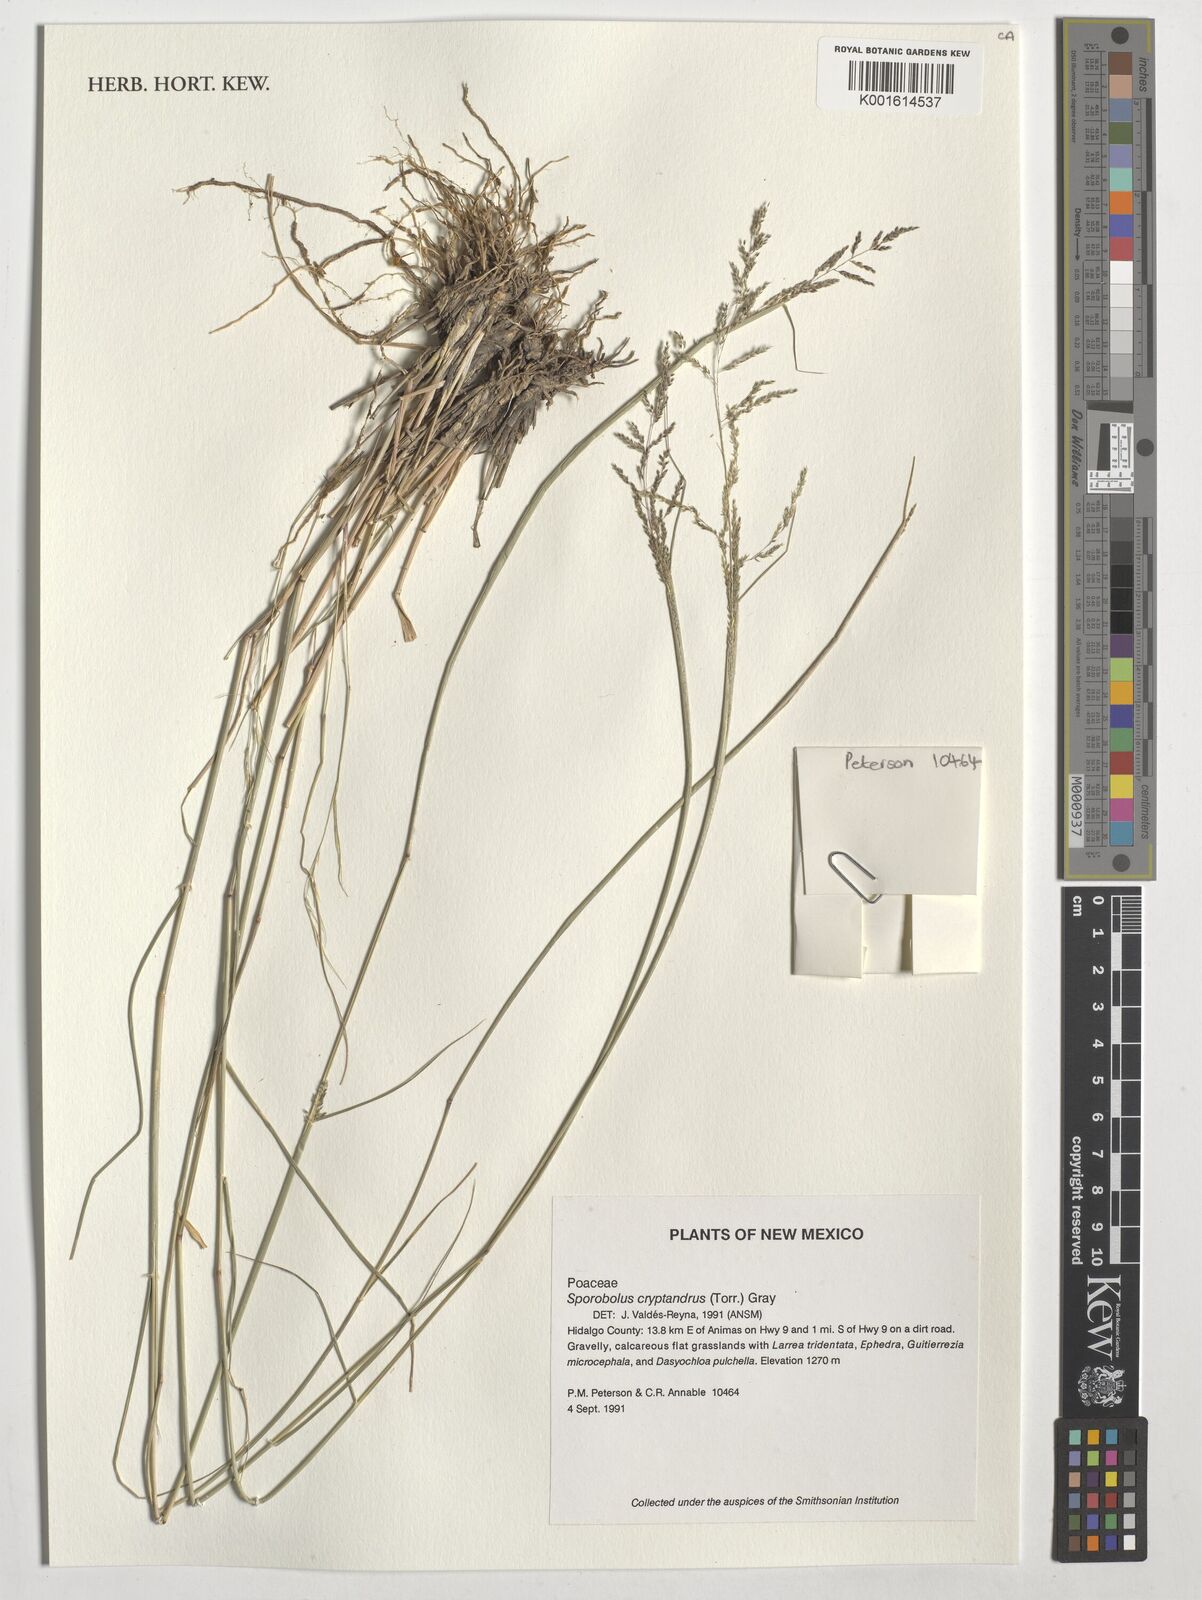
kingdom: Plantae
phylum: Tracheophyta
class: Liliopsida
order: Poales
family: Poaceae
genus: Sporobolus
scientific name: Sporobolus cryptandrus
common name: Sand dropseed
